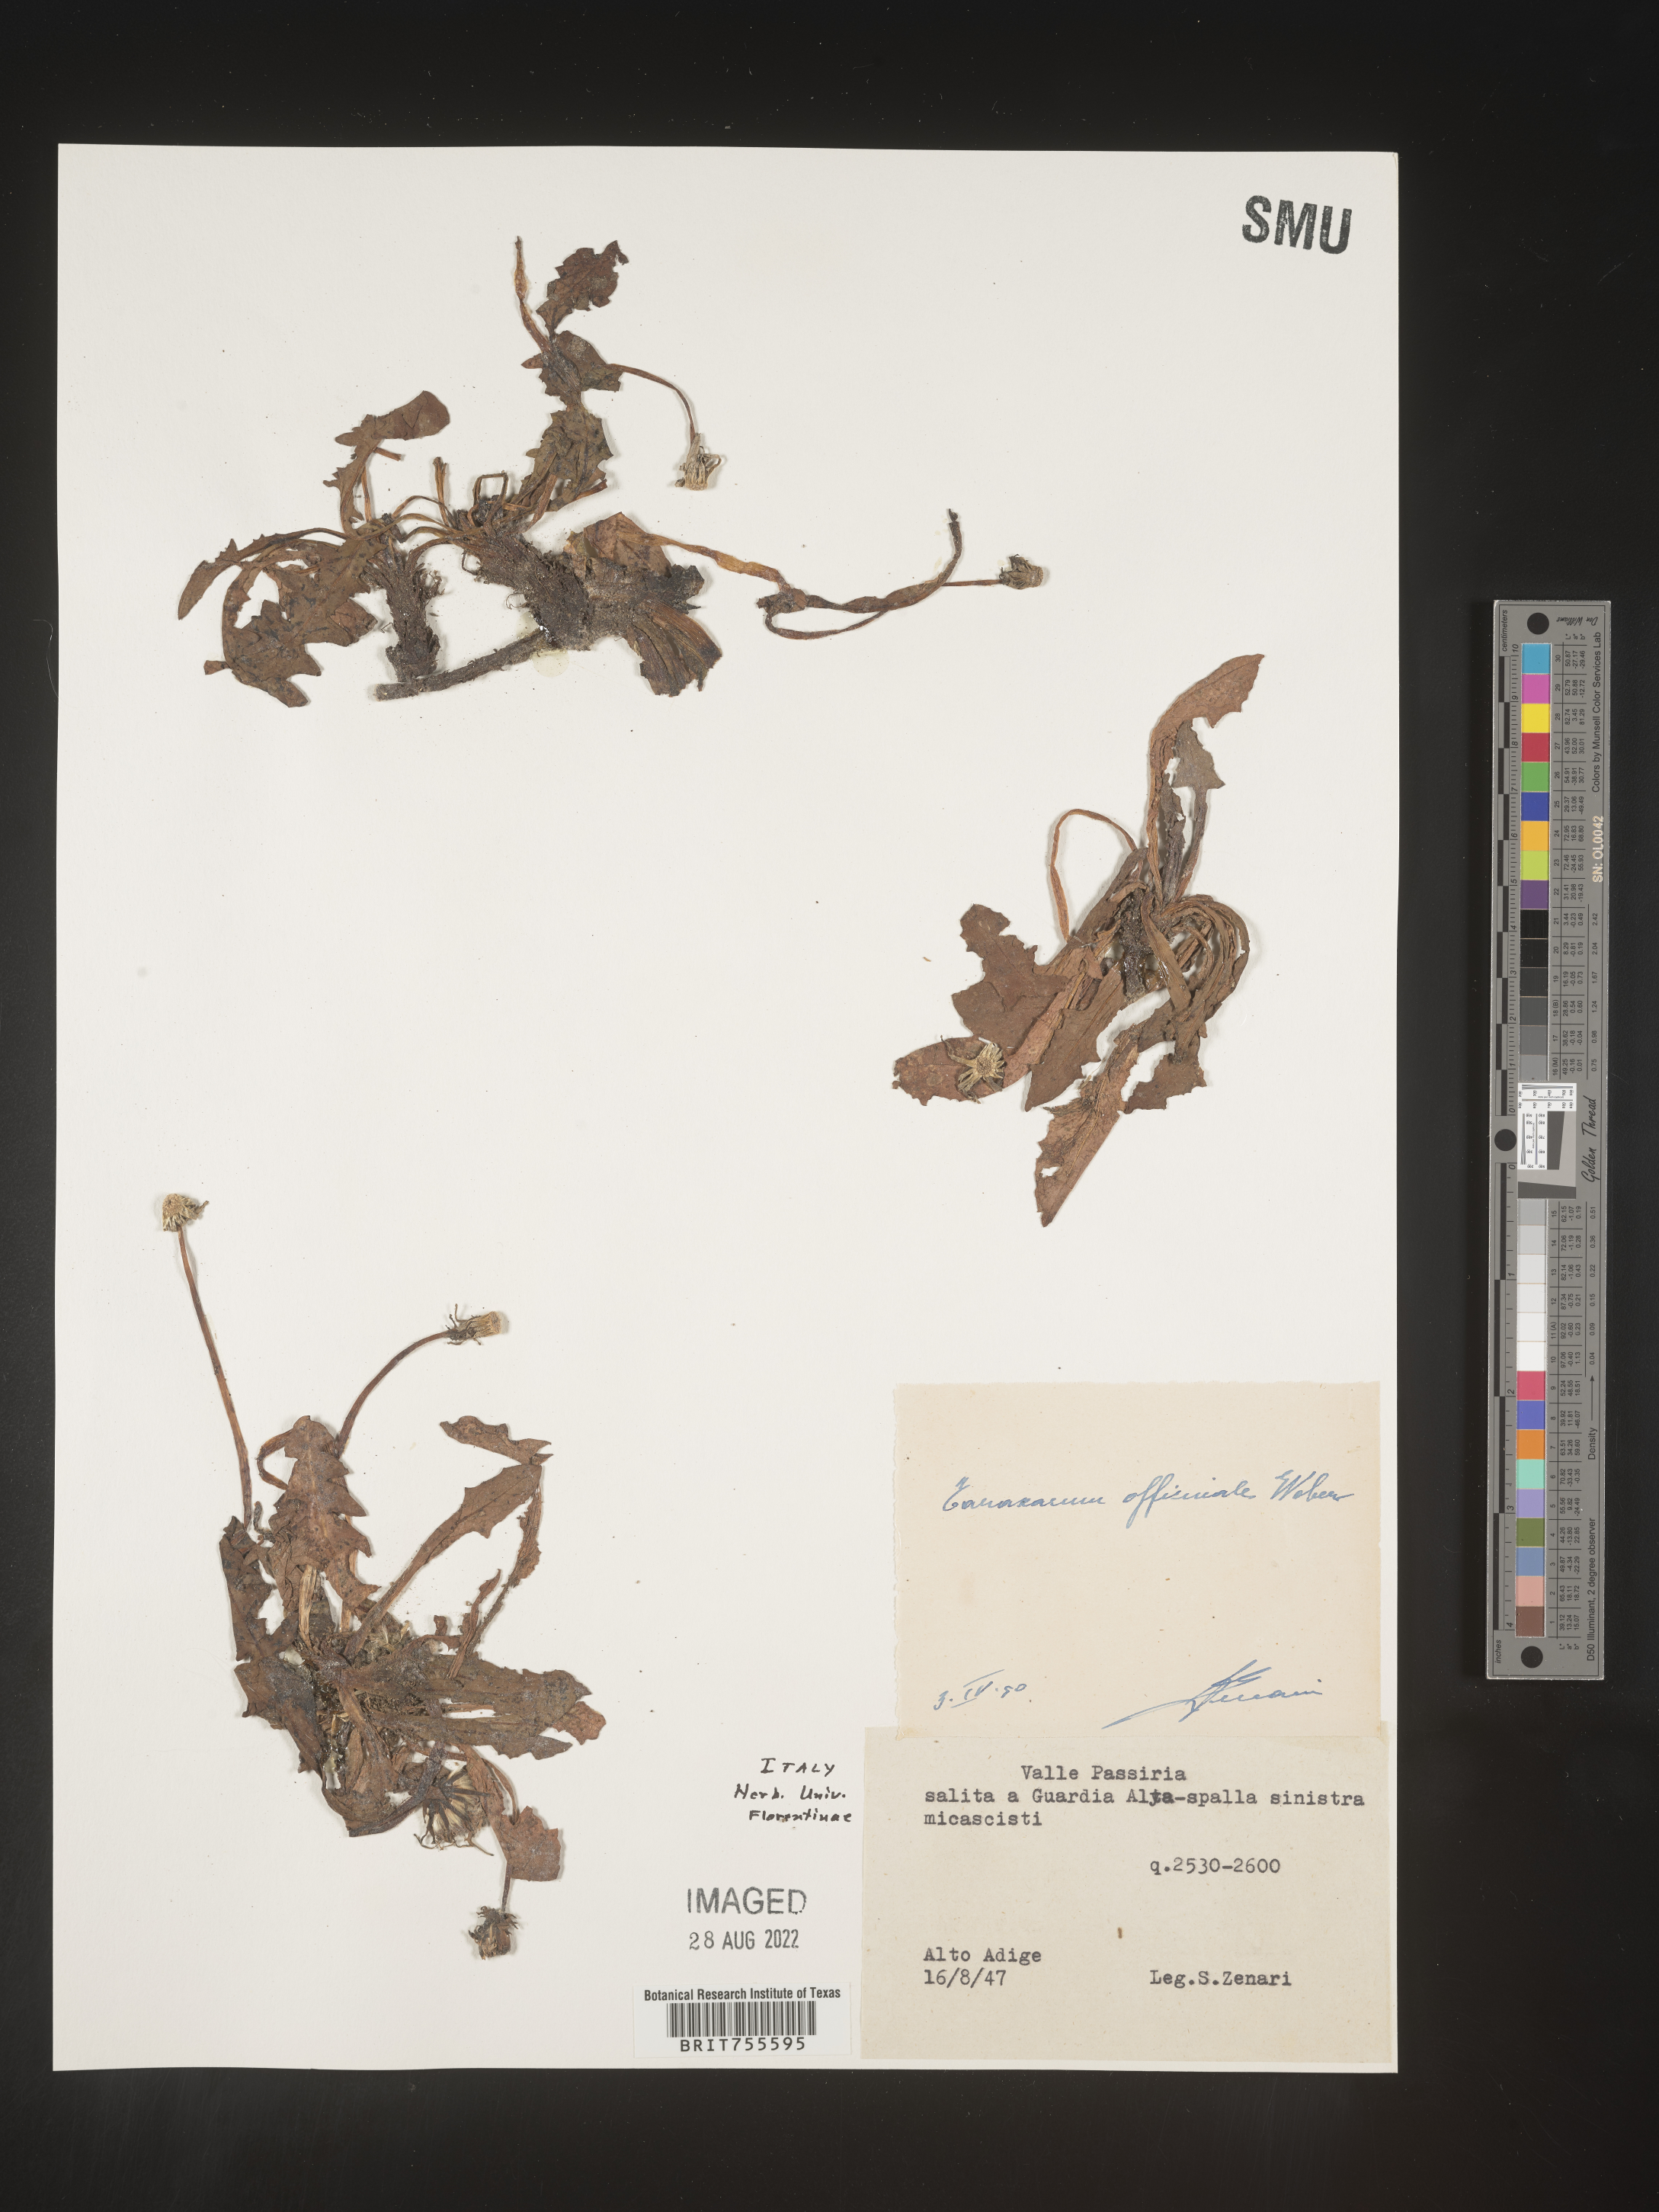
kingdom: Plantae
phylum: Tracheophyta
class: Magnoliopsida
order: Asterales
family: Asteraceae
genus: Taraxacum
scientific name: Taraxacum
